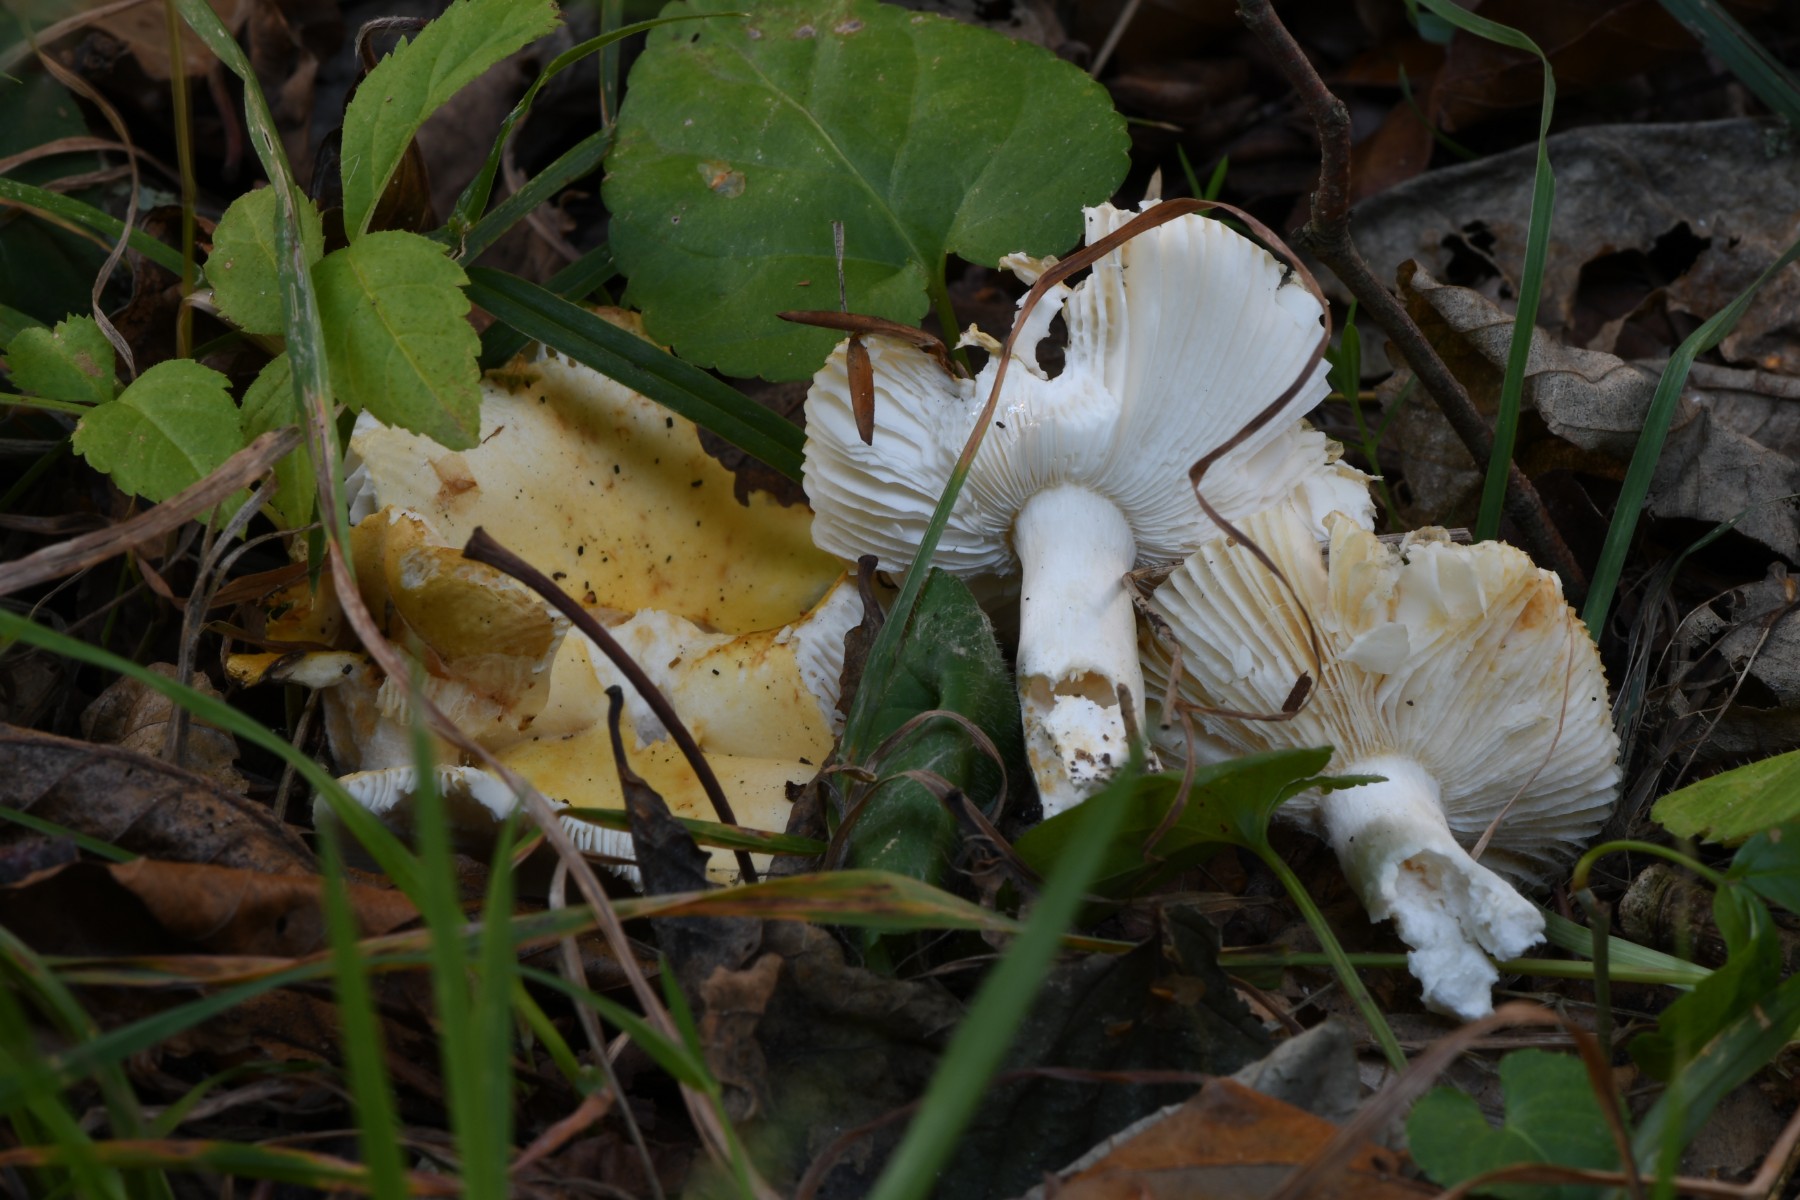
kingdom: Fungi
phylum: Basidiomycota
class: Agaricomycetes
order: Russulales
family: Russulaceae
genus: Russula
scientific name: Russula solaris
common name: sol-skørhat
